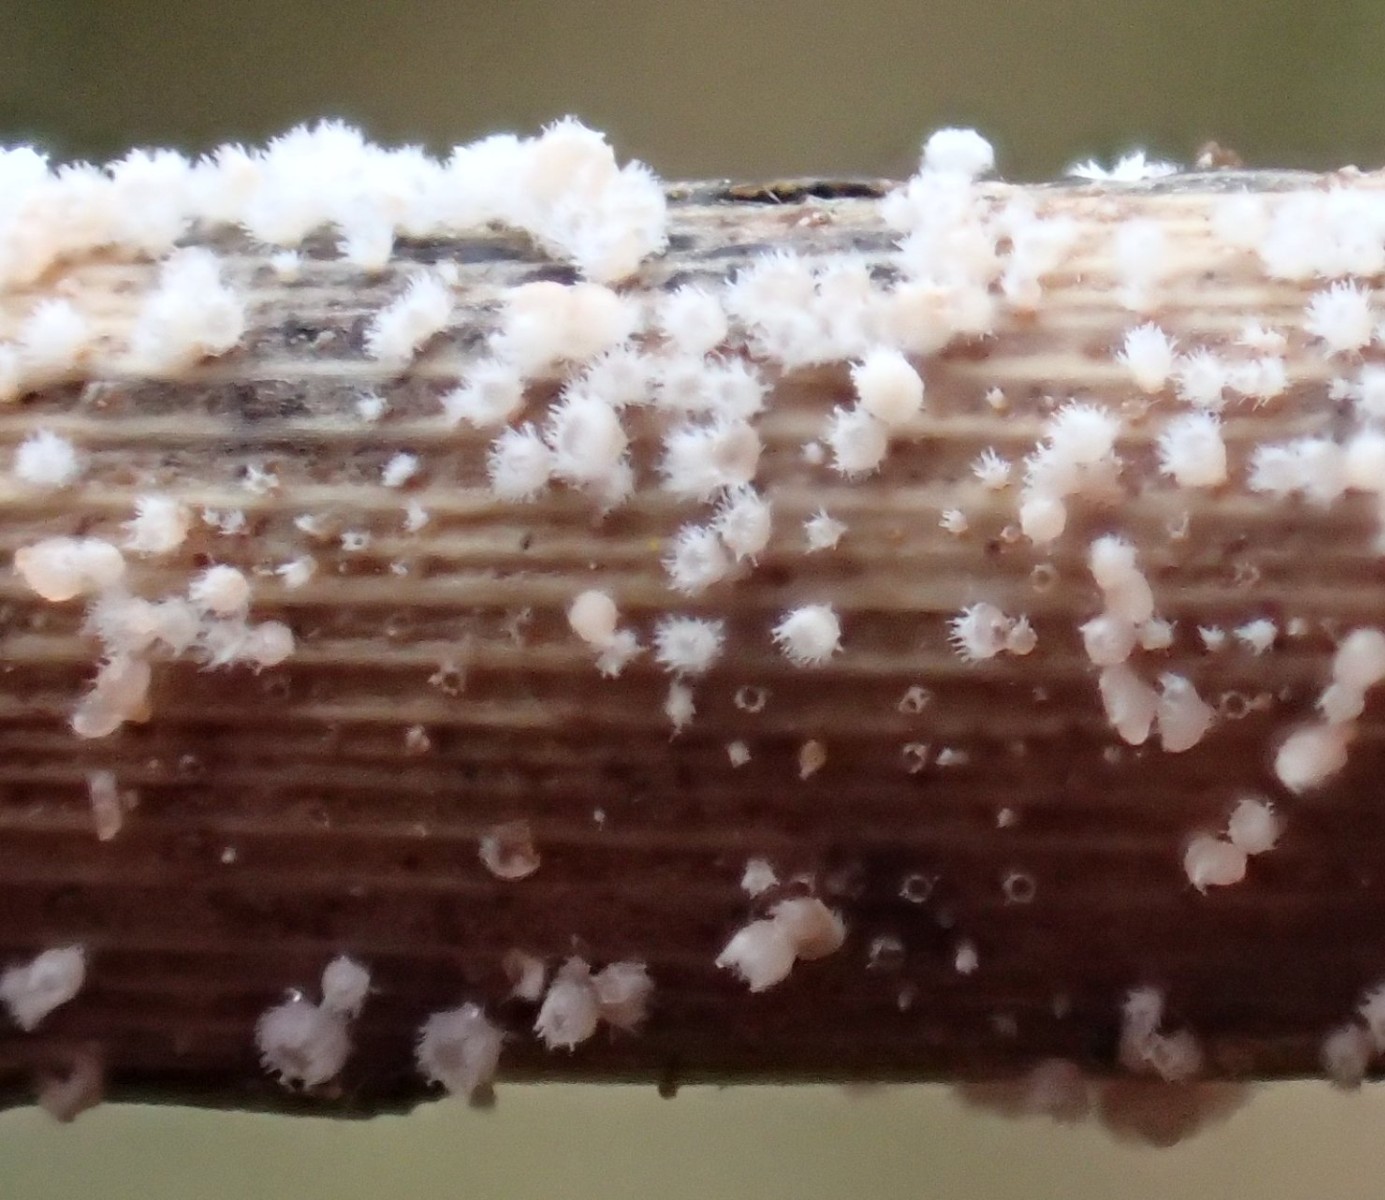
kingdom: Fungi
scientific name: Fungi
